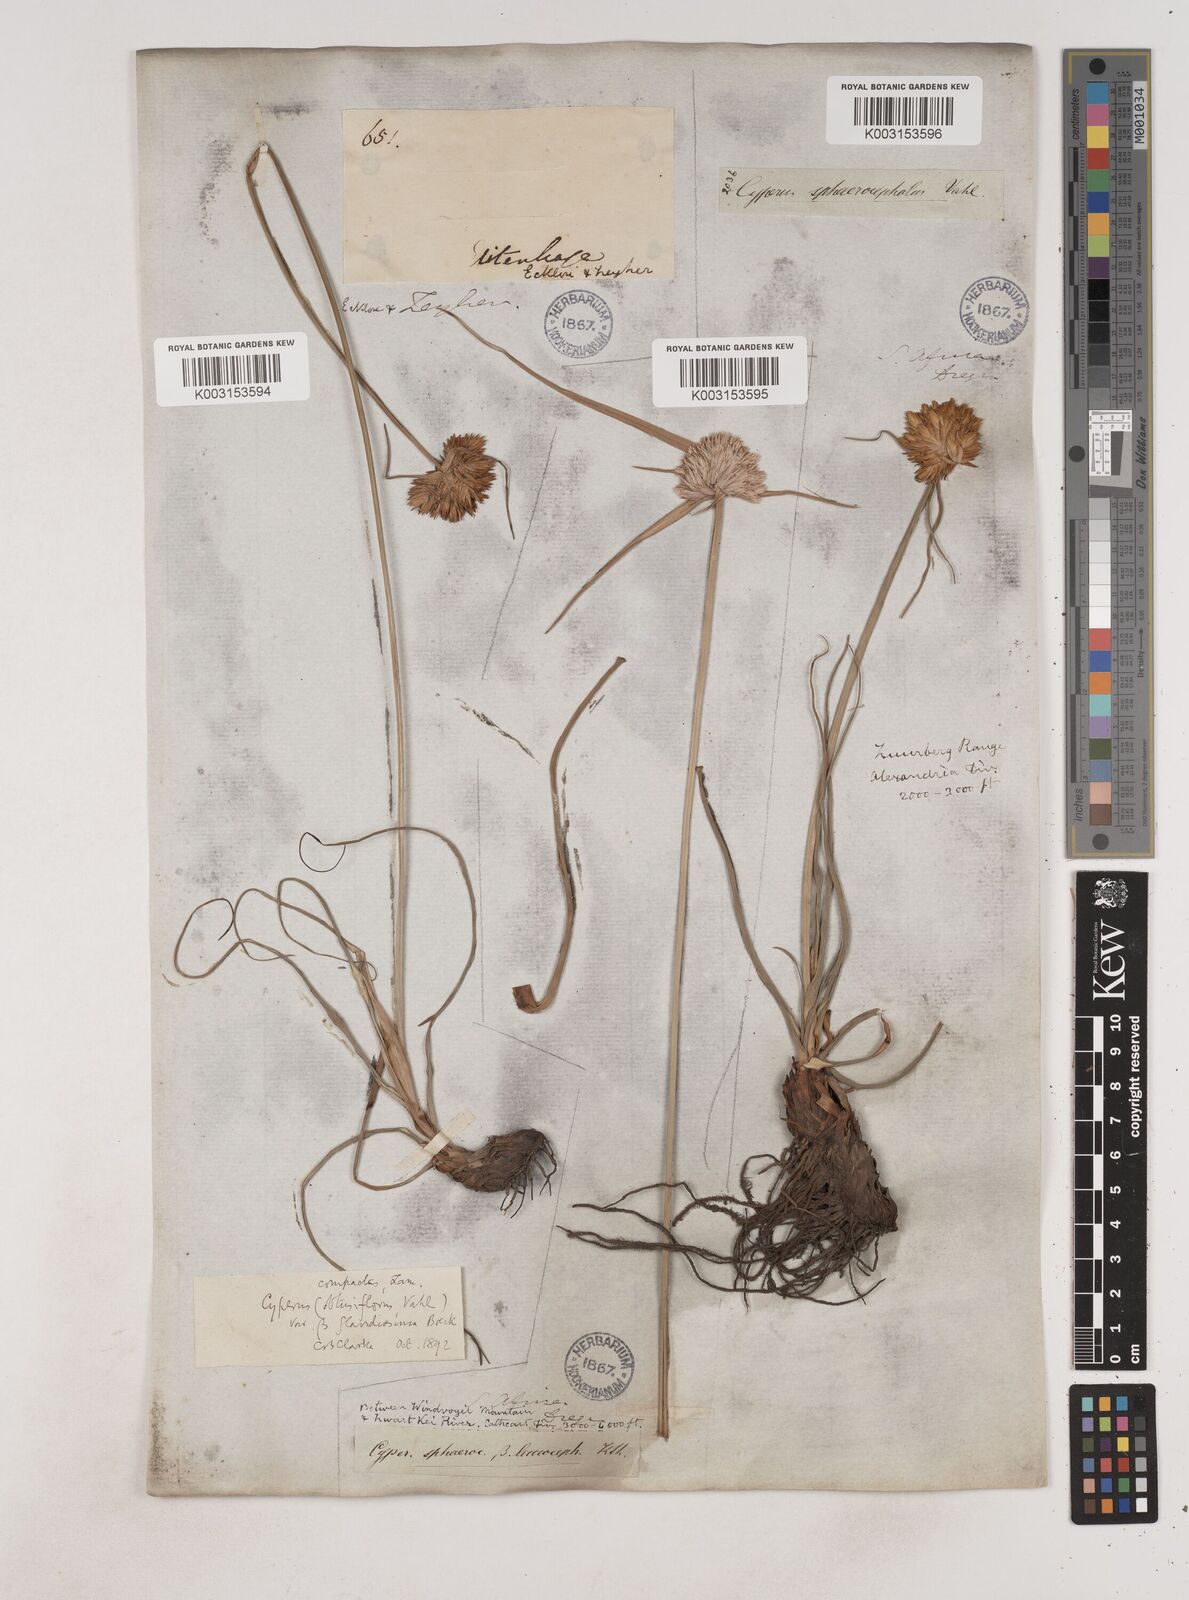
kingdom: Plantae
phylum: Tracheophyta
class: Liliopsida
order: Poales
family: Cyperaceae
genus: Cyperus
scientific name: Cyperus niveus
